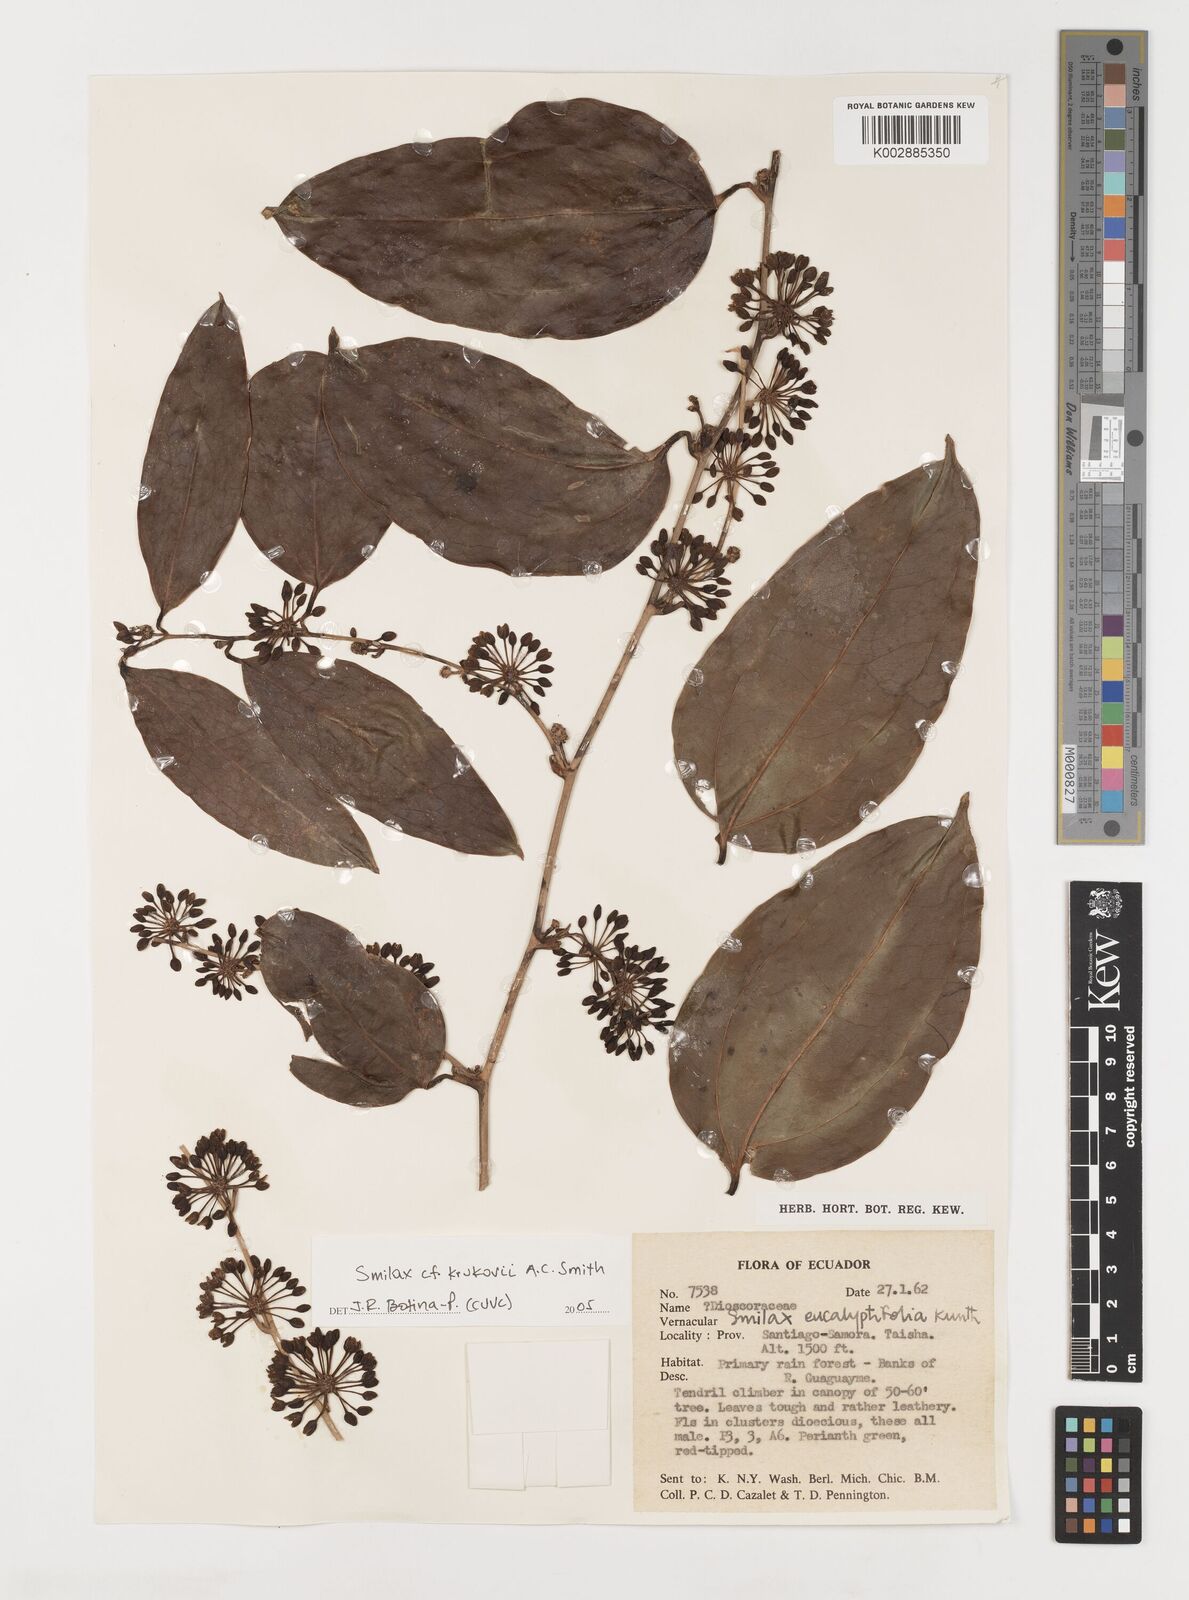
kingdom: Plantae
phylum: Tracheophyta
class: Liliopsida
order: Liliales
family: Smilacaceae
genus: Smilax
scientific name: Smilax domingensis
